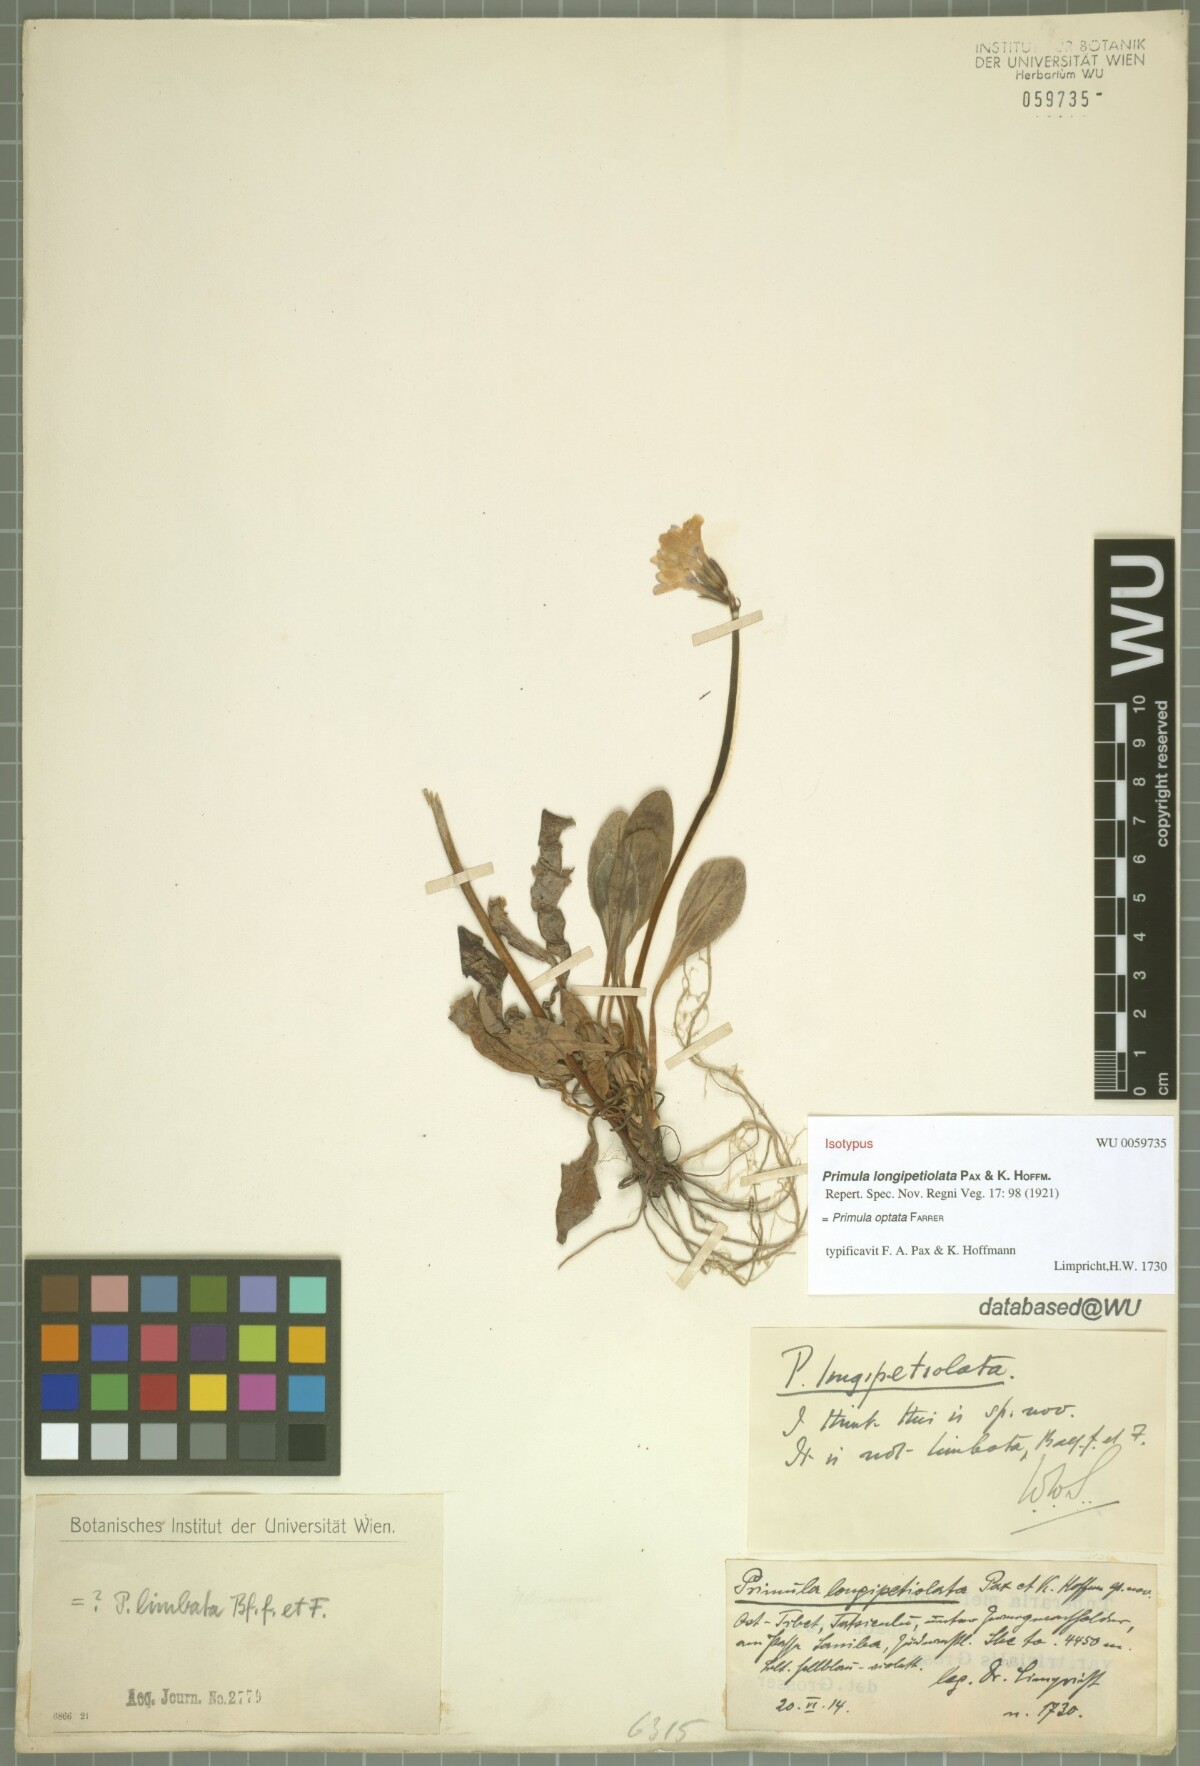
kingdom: Plantae
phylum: Tracheophyta
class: Magnoliopsida
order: Ericales
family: Primulaceae
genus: Primula
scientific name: Primula optata
